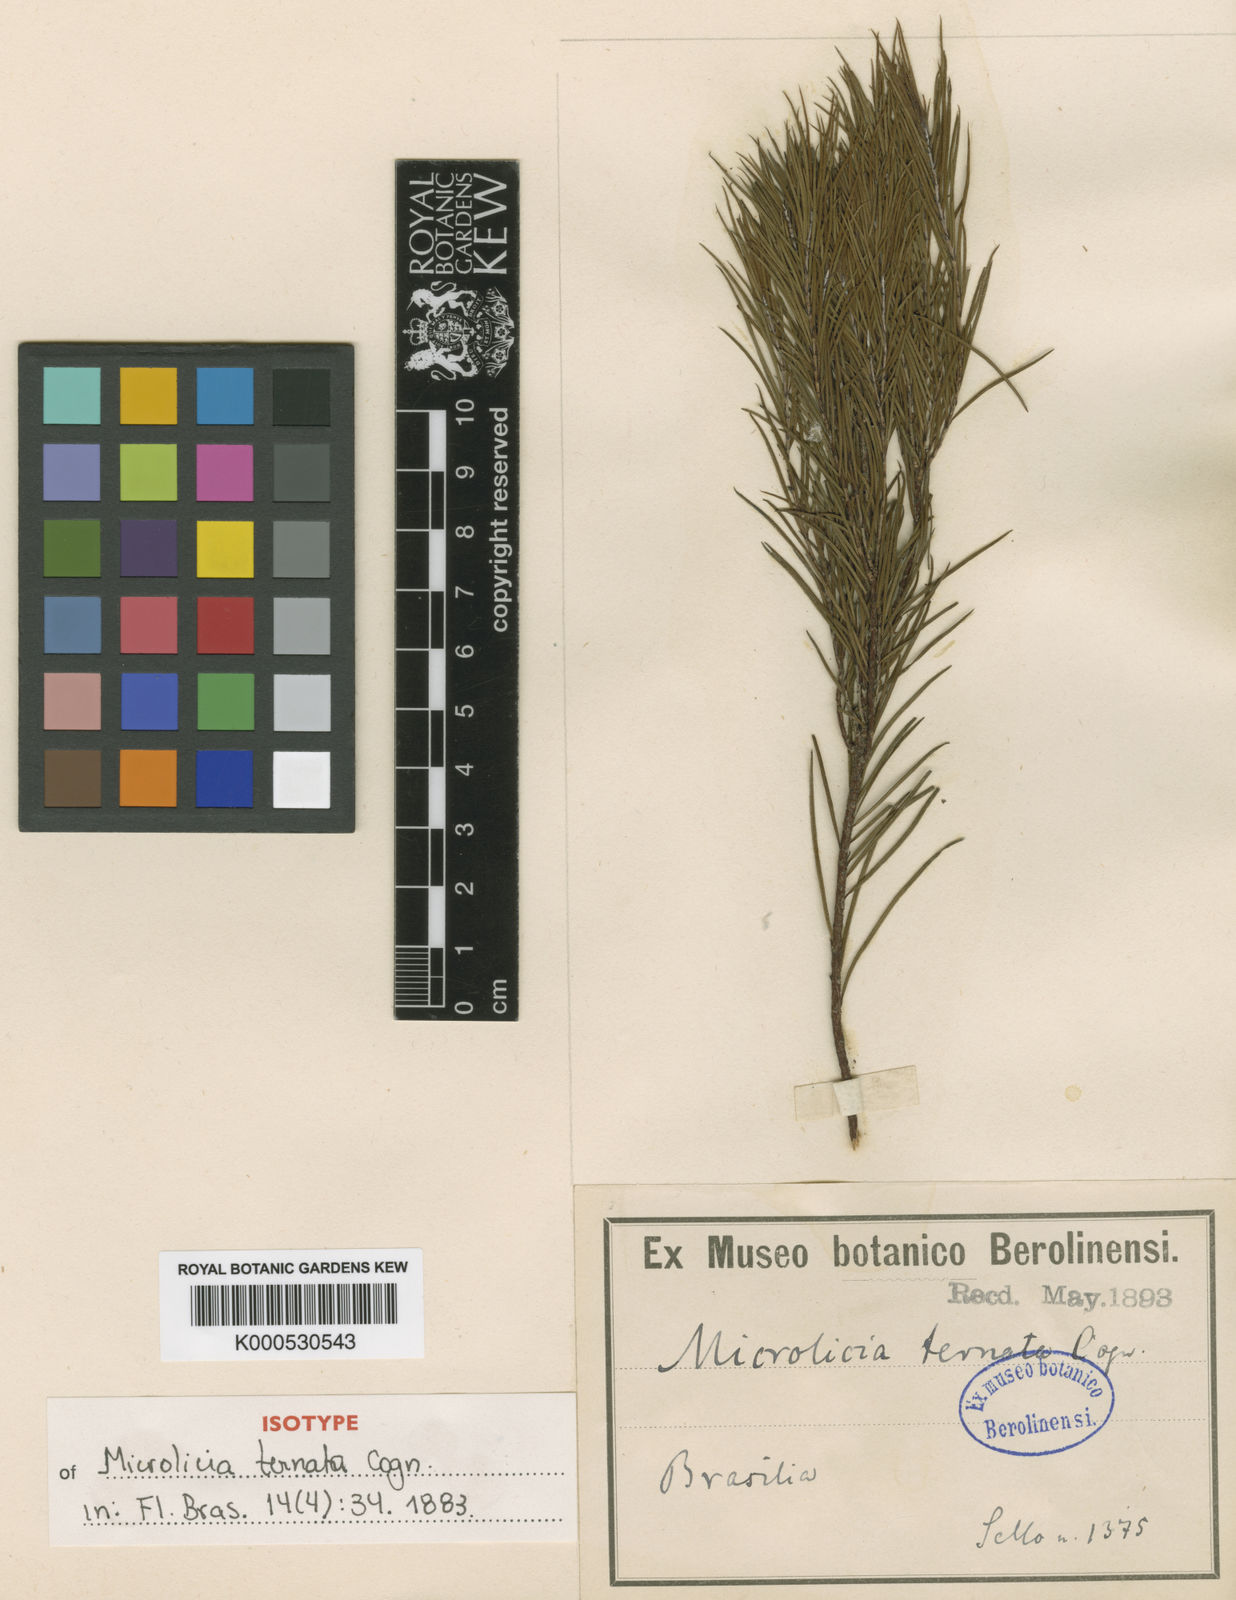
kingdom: Plantae
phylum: Tracheophyta
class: Magnoliopsida
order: Myrtales
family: Melastomataceae
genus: Microlicia
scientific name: Microlicia ternata
